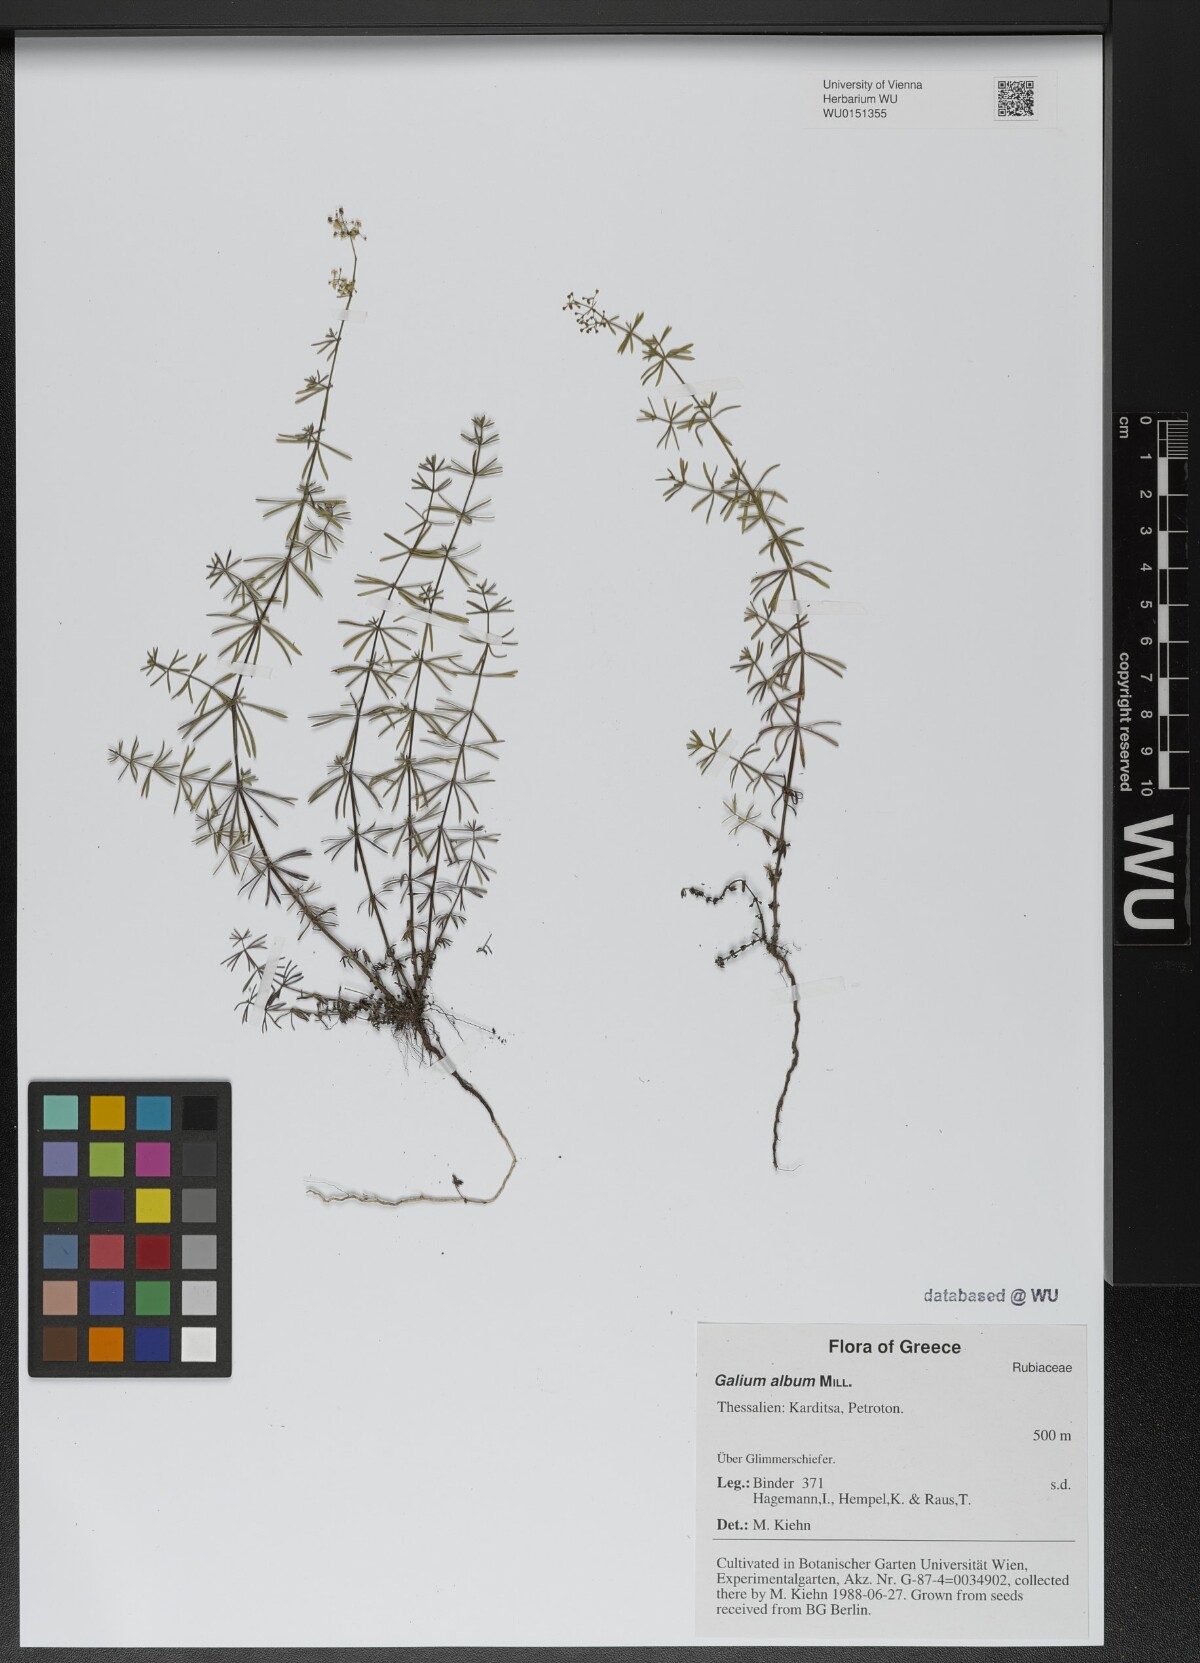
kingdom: Plantae
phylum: Tracheophyta
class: Magnoliopsida
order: Gentianales
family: Rubiaceae
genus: Galium
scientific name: Galium album
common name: White bedstraw
